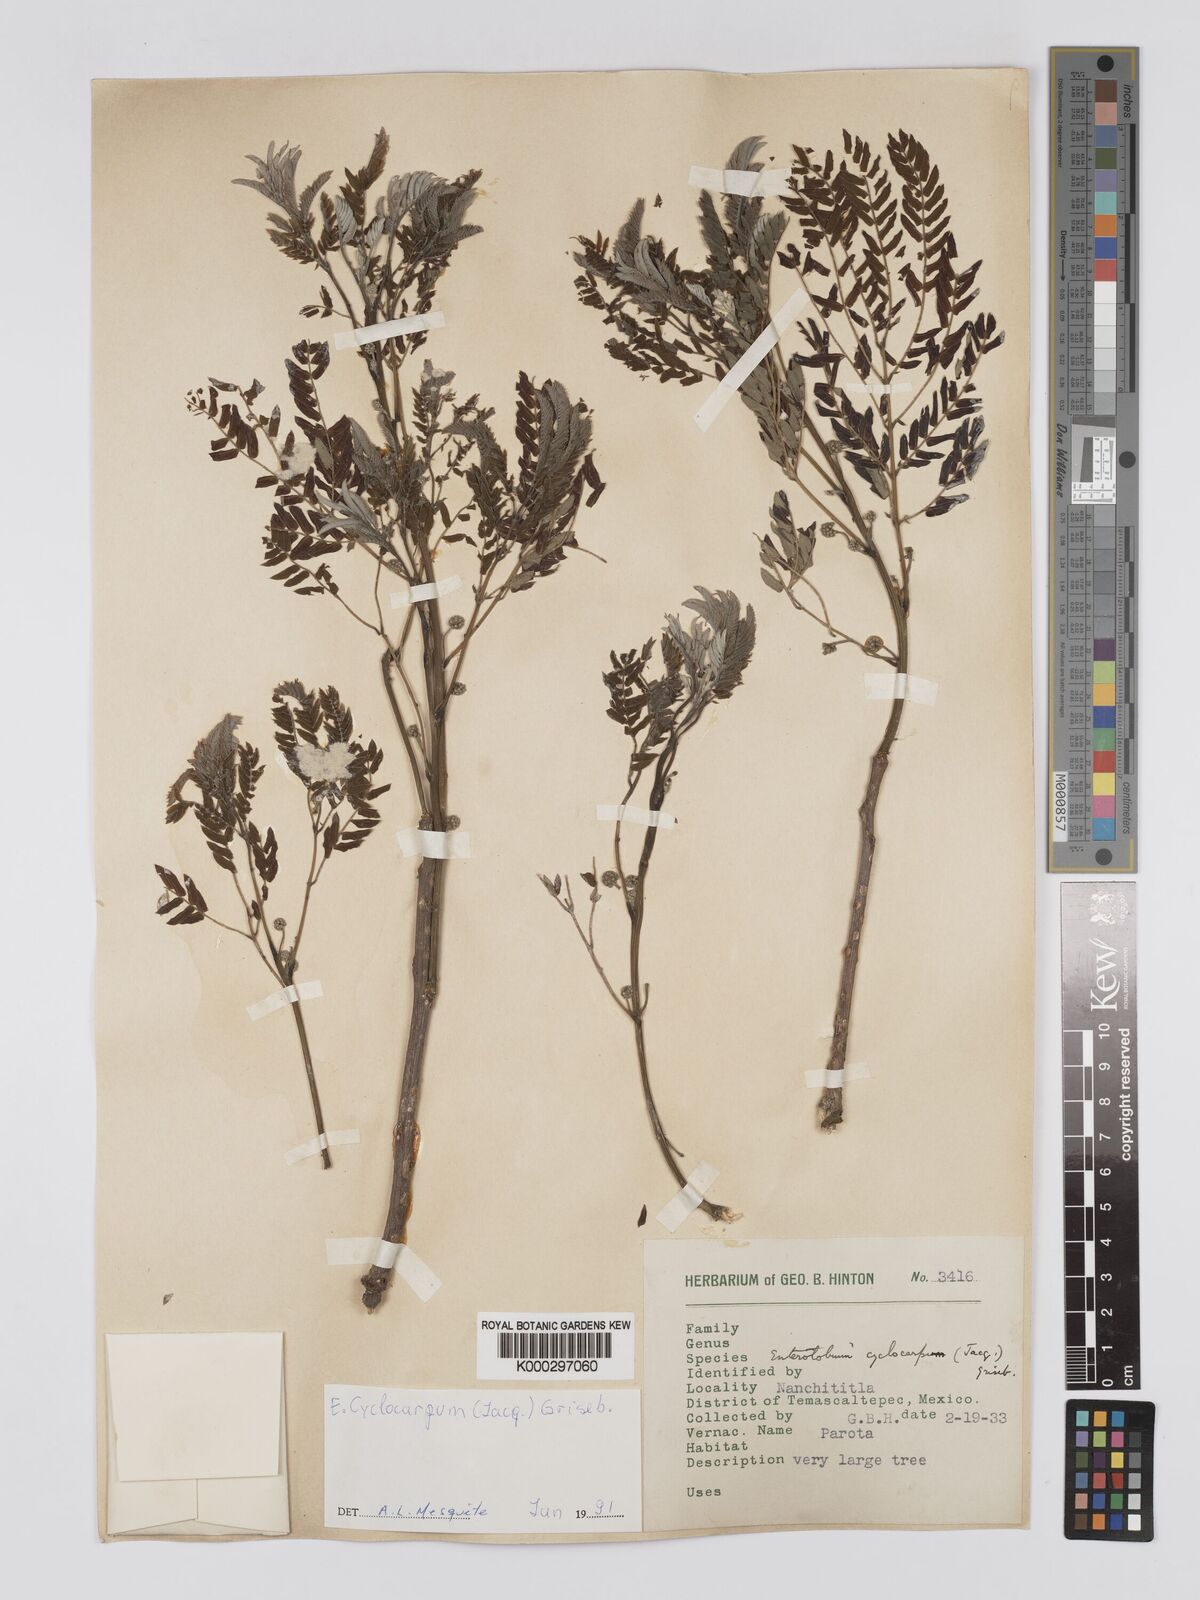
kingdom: Plantae
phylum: Tracheophyta
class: Magnoliopsida
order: Fabales
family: Fabaceae
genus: Enterolobium
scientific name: Enterolobium cyclocarpum
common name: Ear tree
